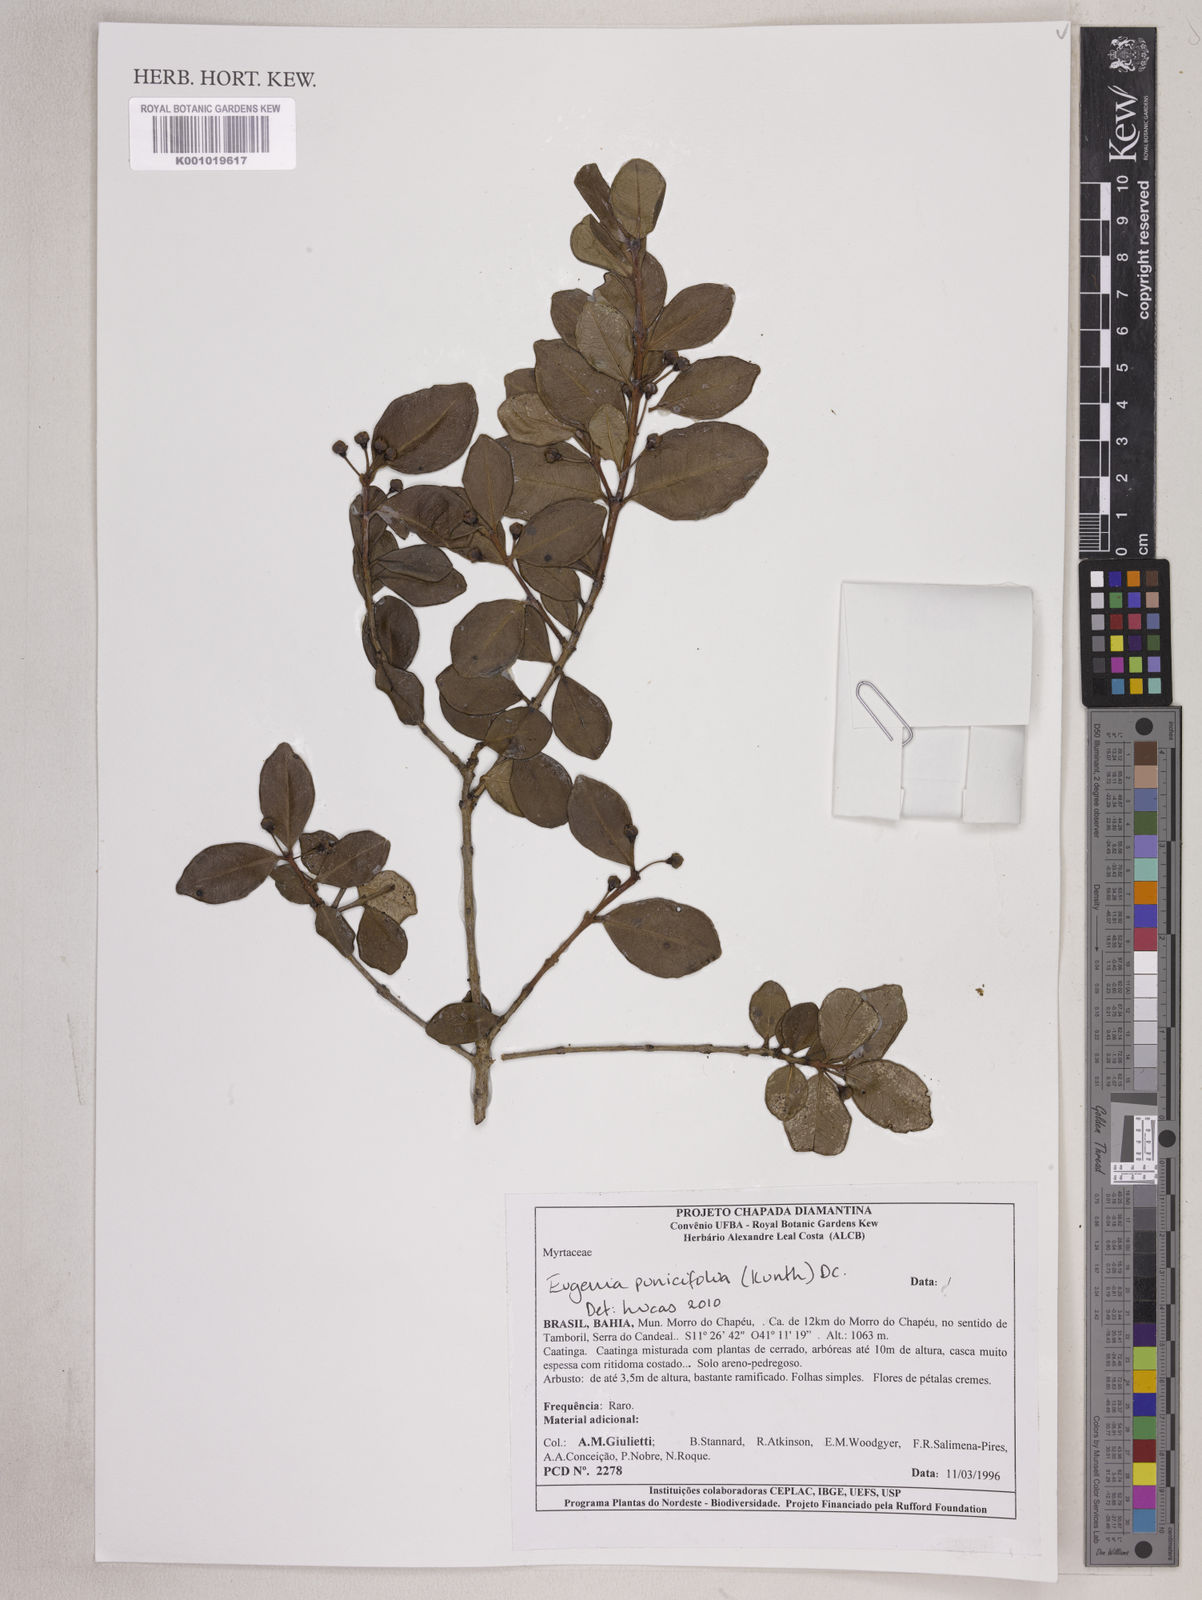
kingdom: Plantae
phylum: Tracheophyta
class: Magnoliopsida
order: Myrtales
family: Myrtaceae
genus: Eugenia
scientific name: Eugenia punicifolia
